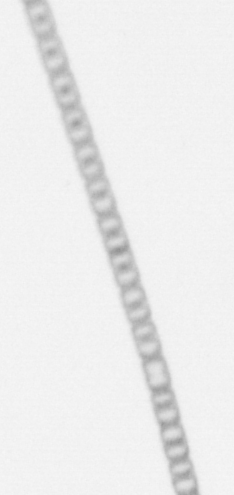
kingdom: Chromista
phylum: Ochrophyta
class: Bacillariophyceae
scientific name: Bacillariophyceae
